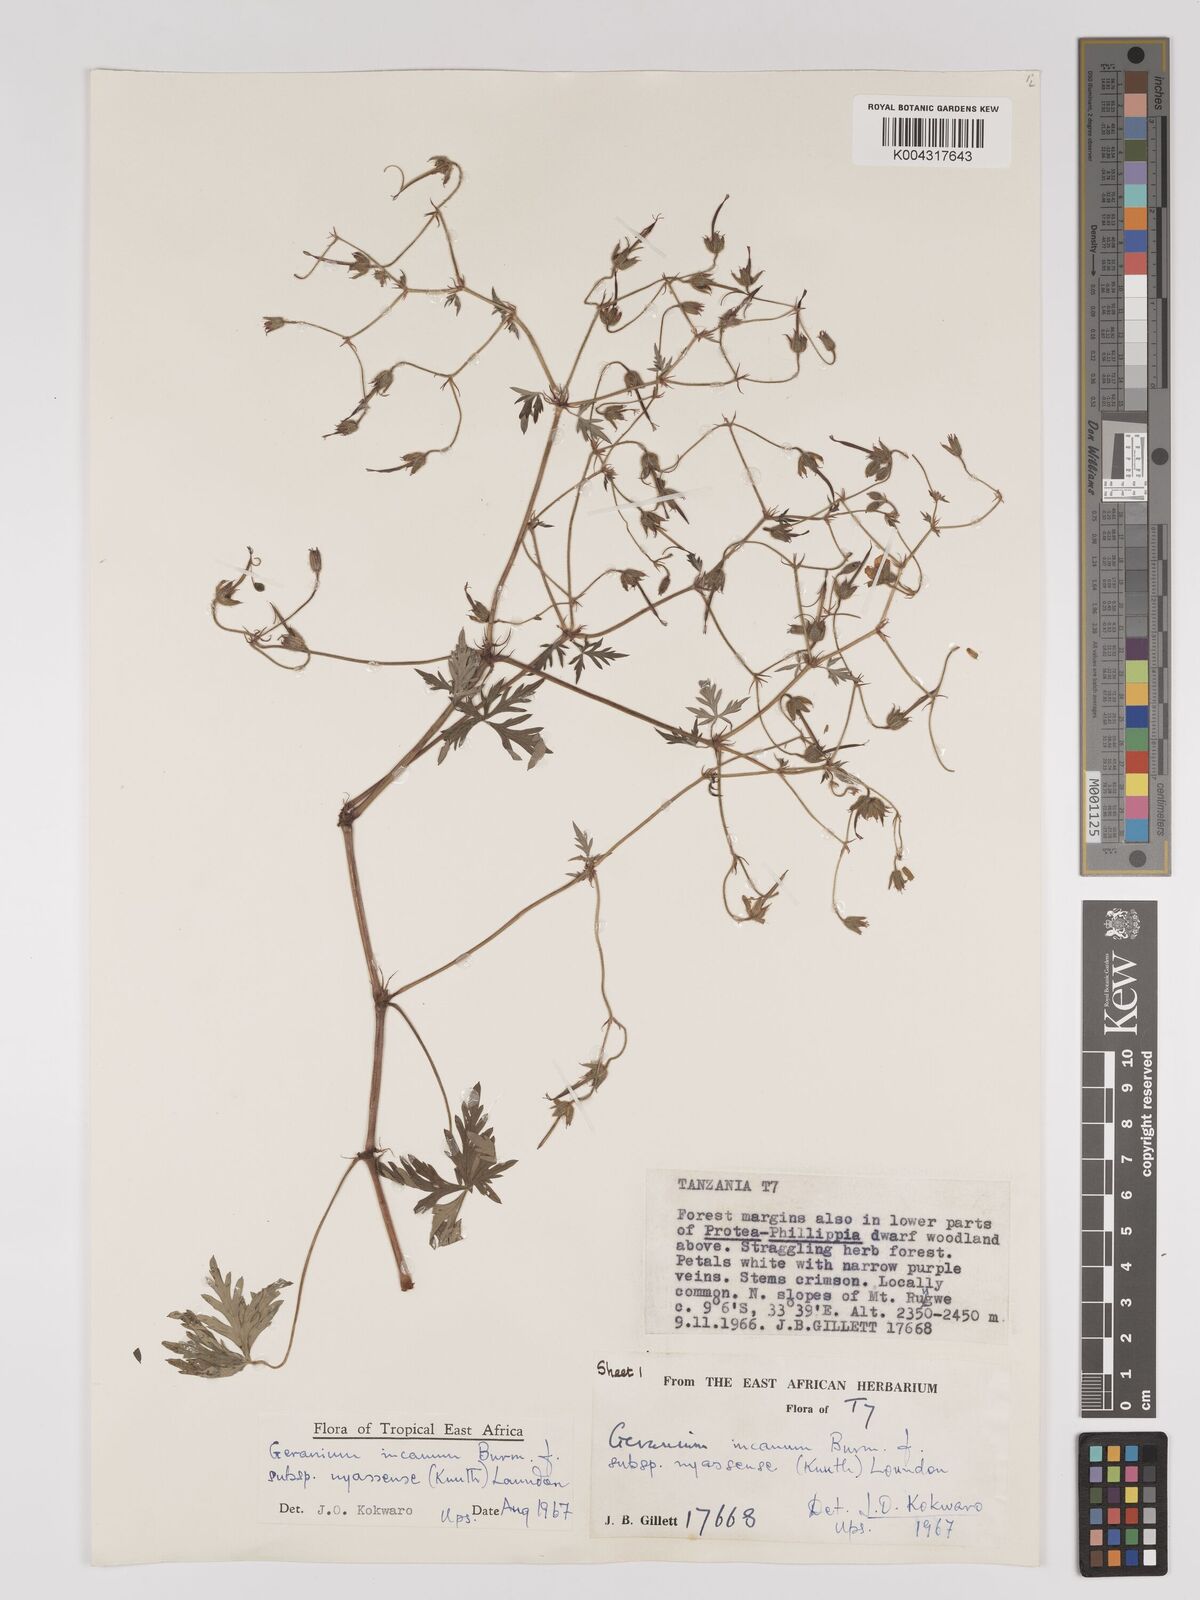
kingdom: Plantae
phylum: Tracheophyta
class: Magnoliopsida
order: Geraniales
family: Geraniaceae
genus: Geranium
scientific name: Geranium incanum
